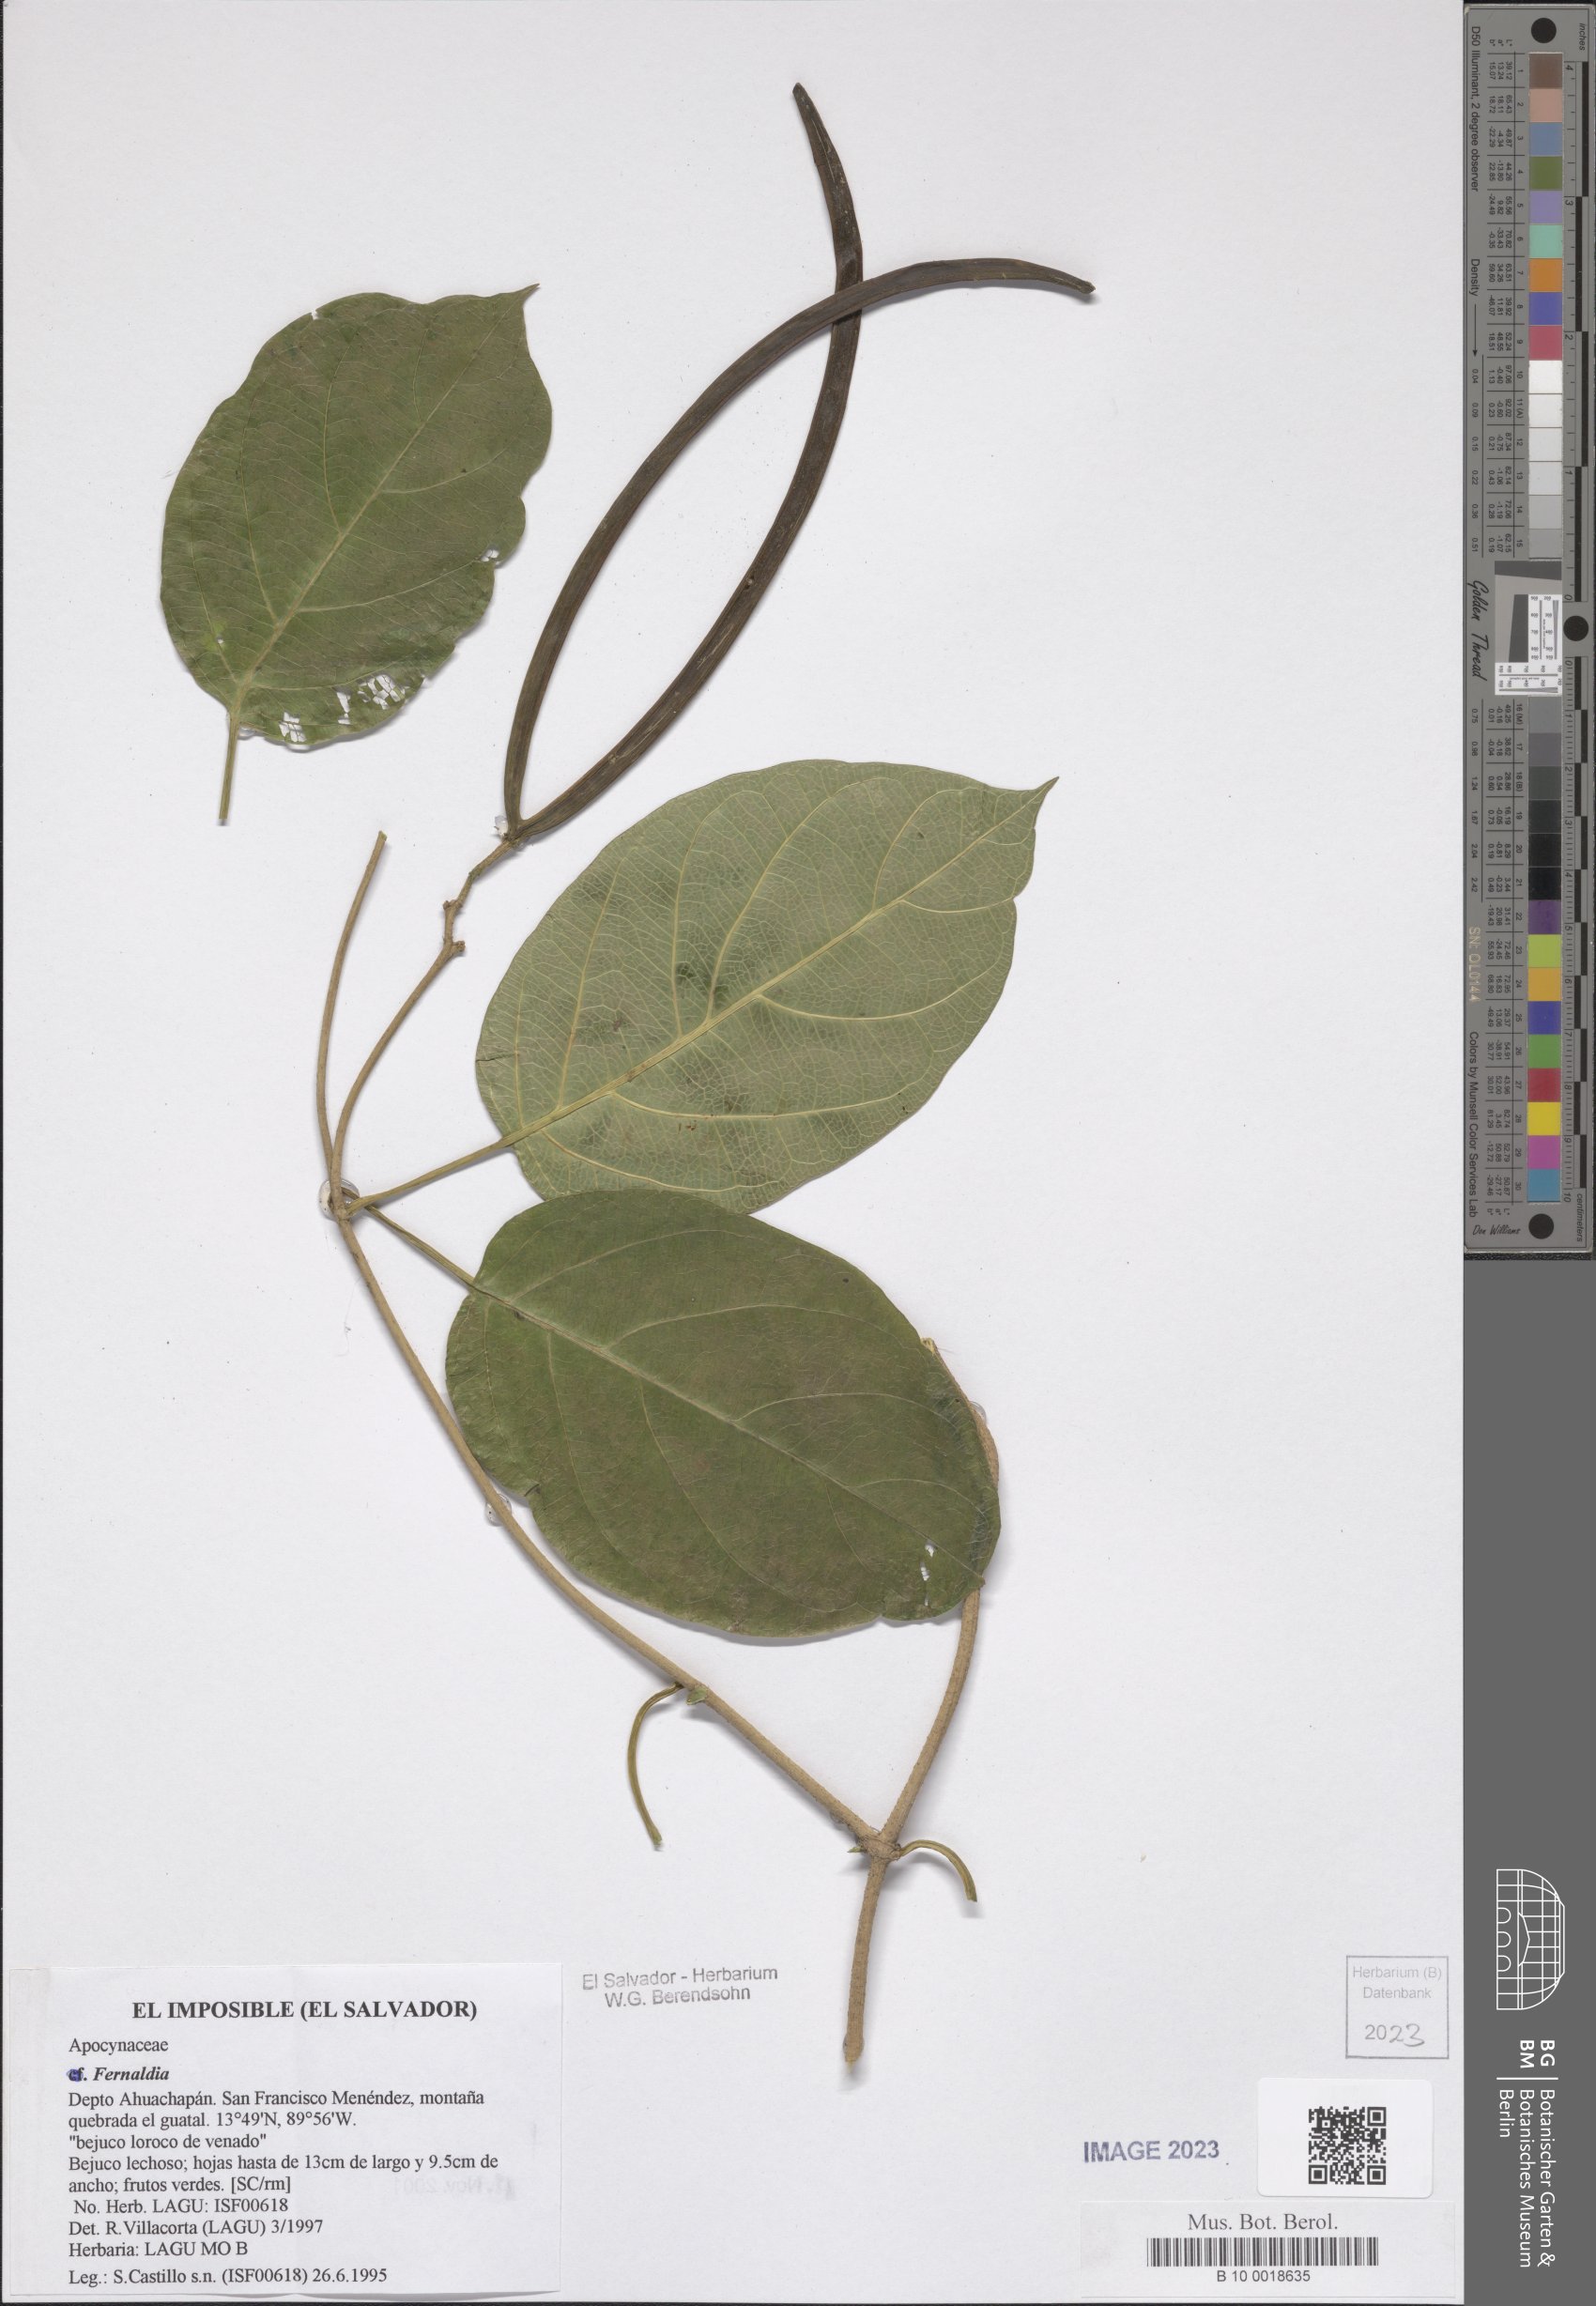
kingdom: Plantae
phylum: Tracheophyta
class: Magnoliopsida
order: Gentianales
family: Apocynaceae
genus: Echites
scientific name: Echites
